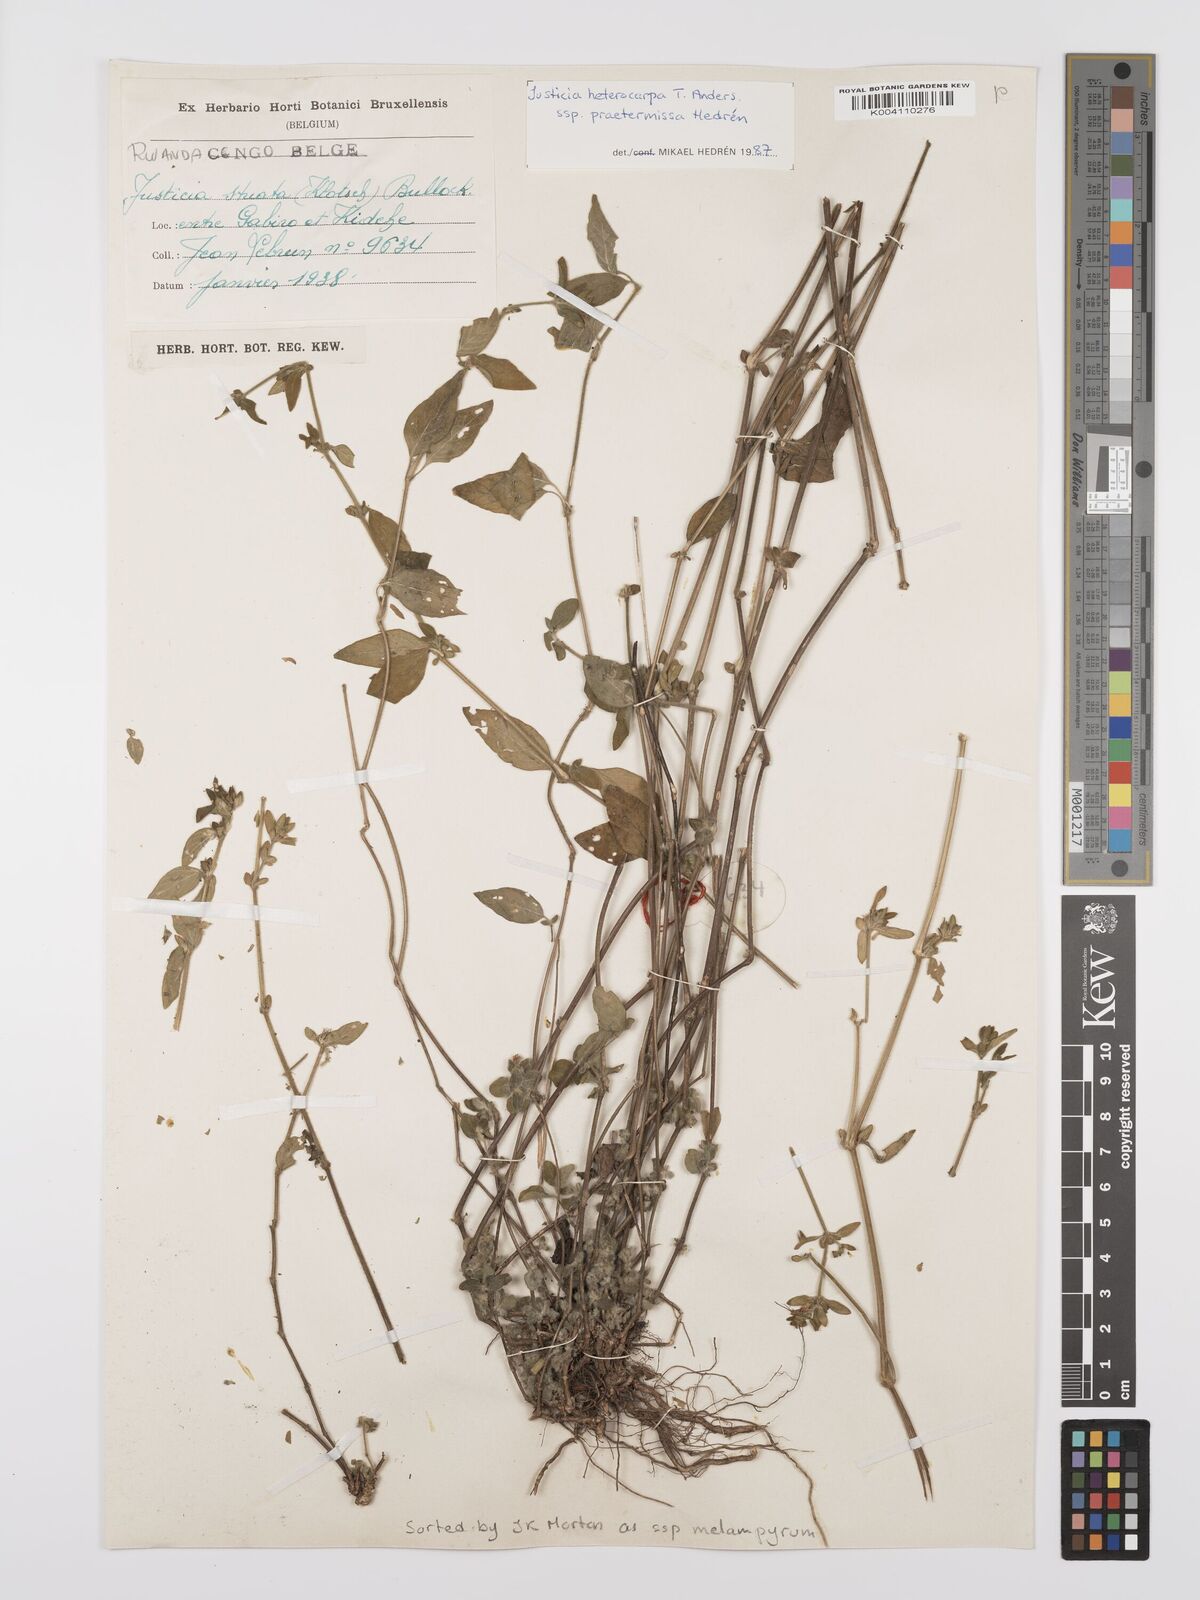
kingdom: Plantae
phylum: Tracheophyta
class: Magnoliopsida
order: Lamiales
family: Acanthaceae
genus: Justicia
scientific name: Justicia heterocarpa
